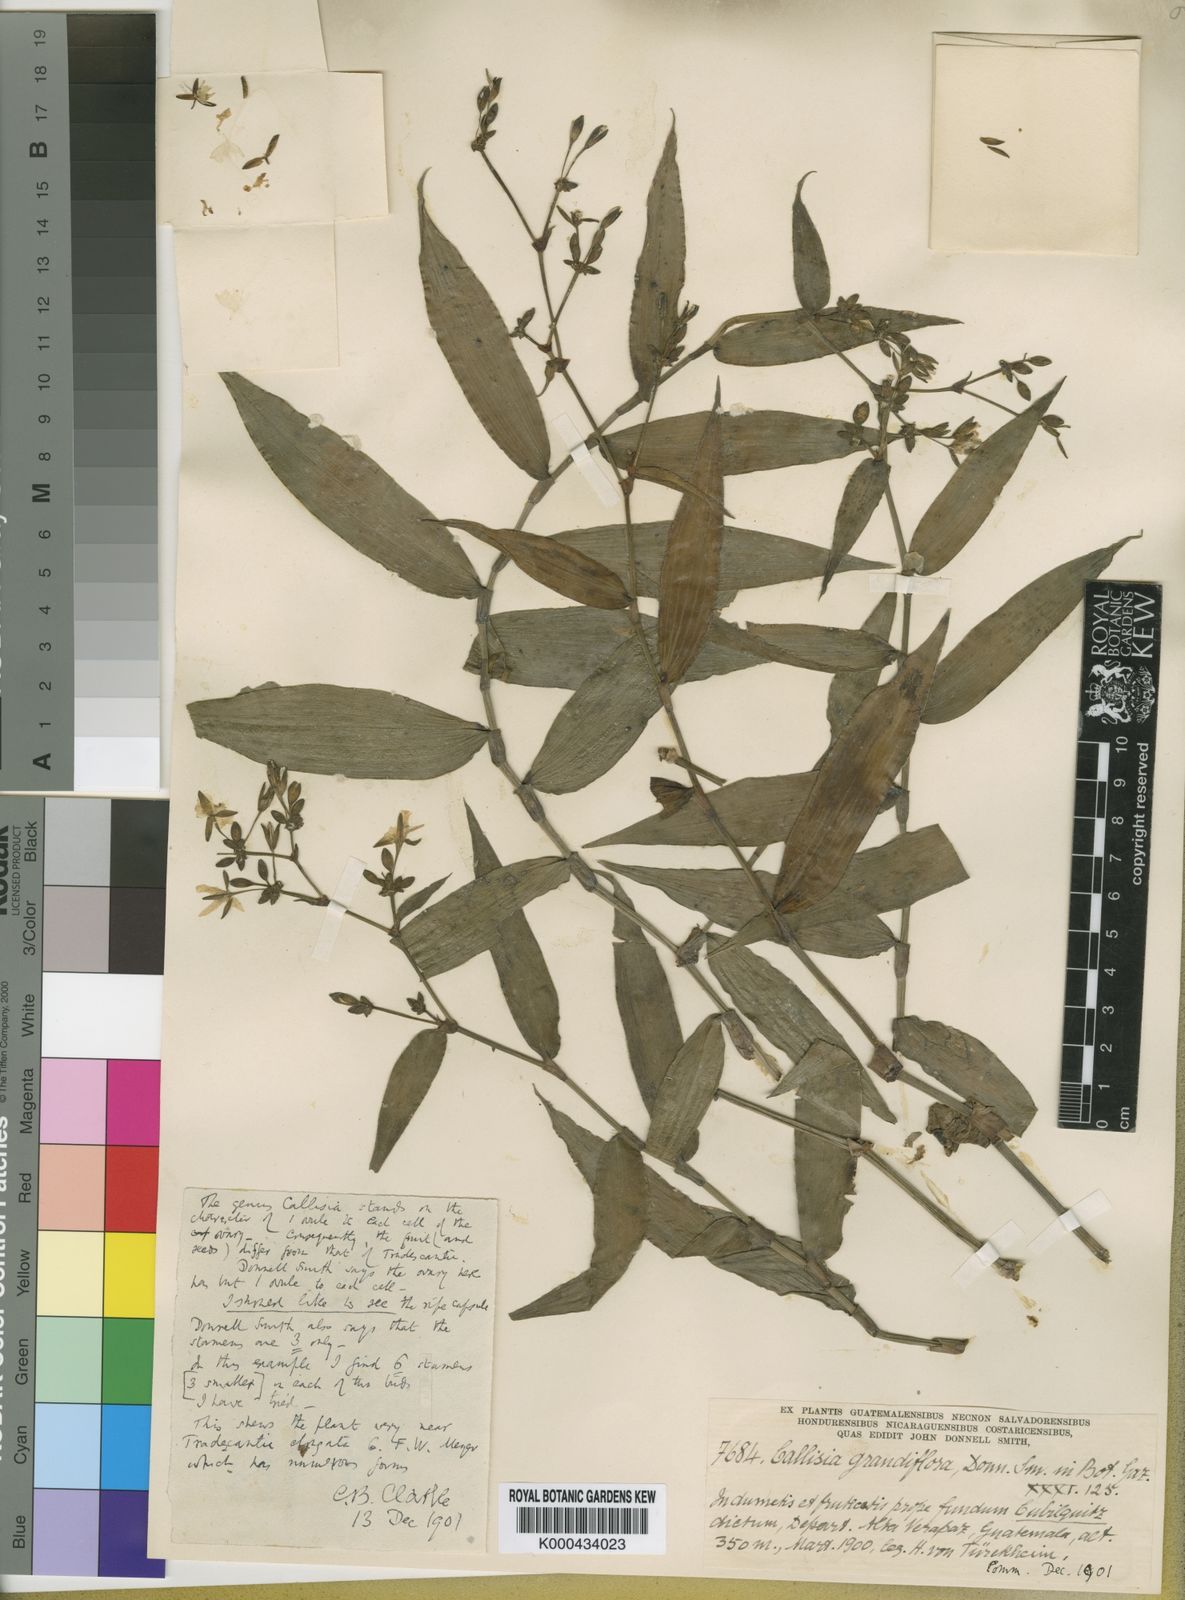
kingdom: Plantae
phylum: Tracheophyta
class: Liliopsida
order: Commelinales
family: Commelinaceae
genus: Callisia
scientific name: Callisia grandiflora
